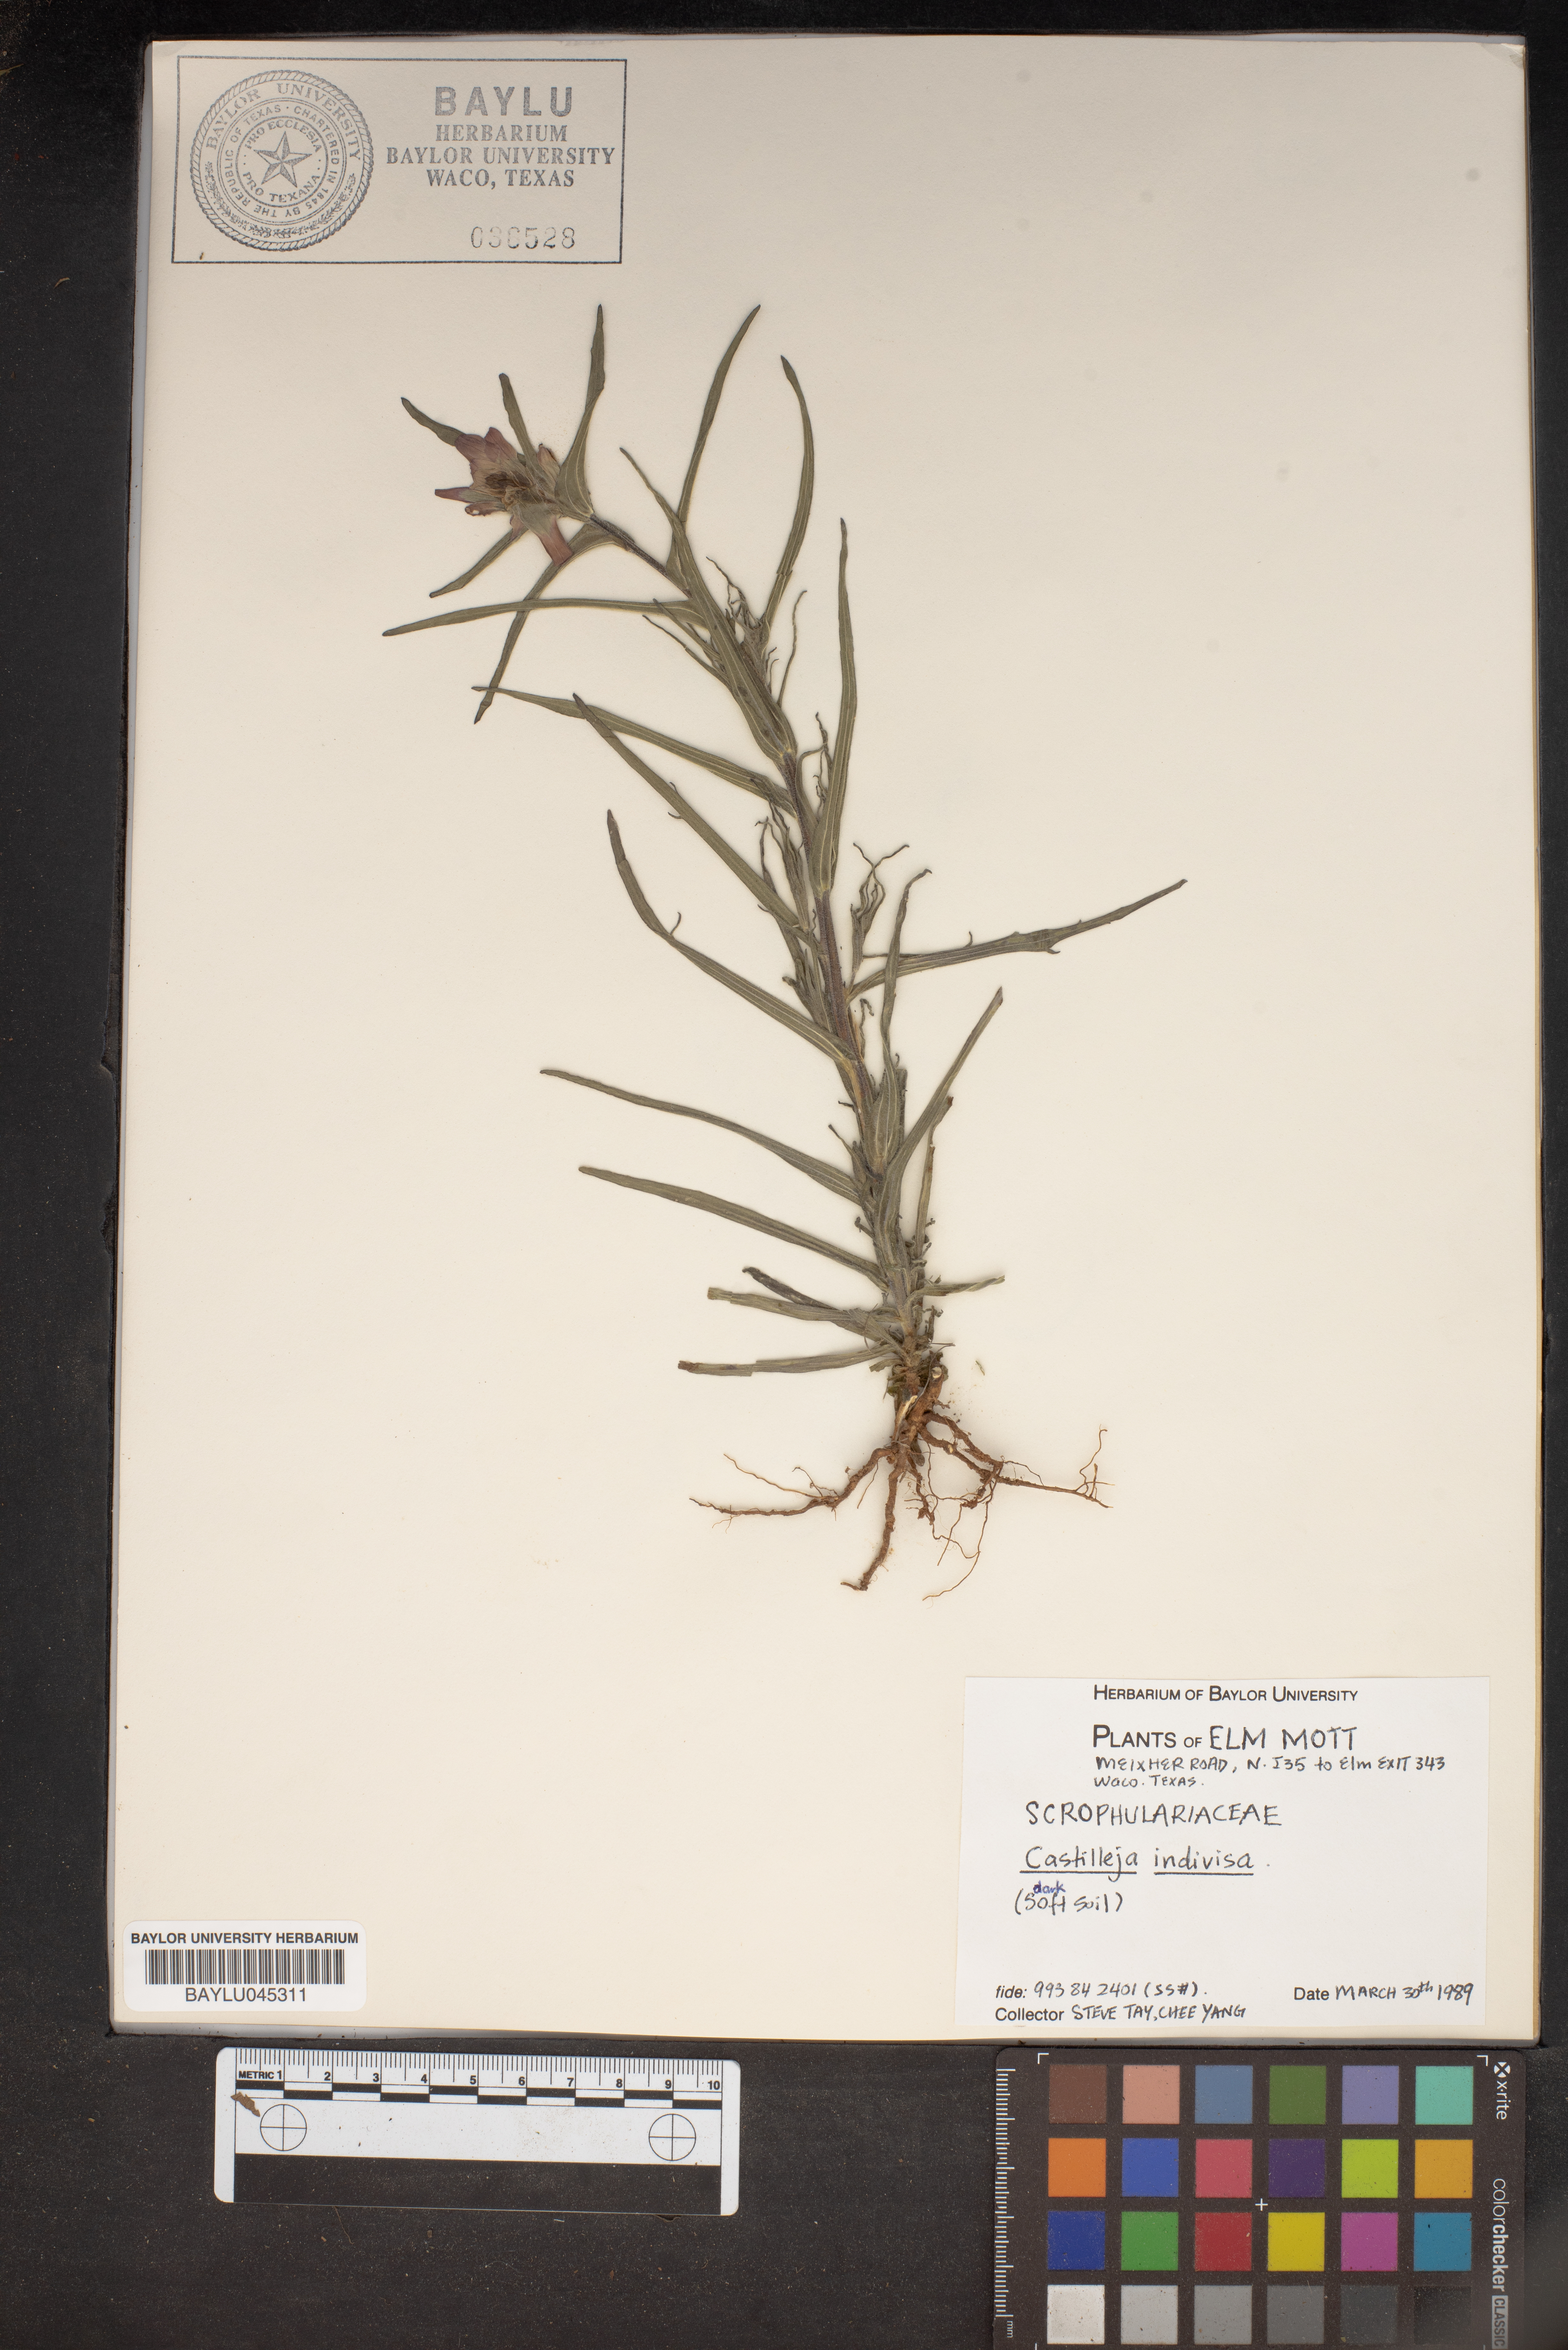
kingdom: Plantae
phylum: Tracheophyta
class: Magnoliopsida
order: Lamiales
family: Orobanchaceae
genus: Castilleja
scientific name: Castilleja indivisa
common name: Texas paintbrush
